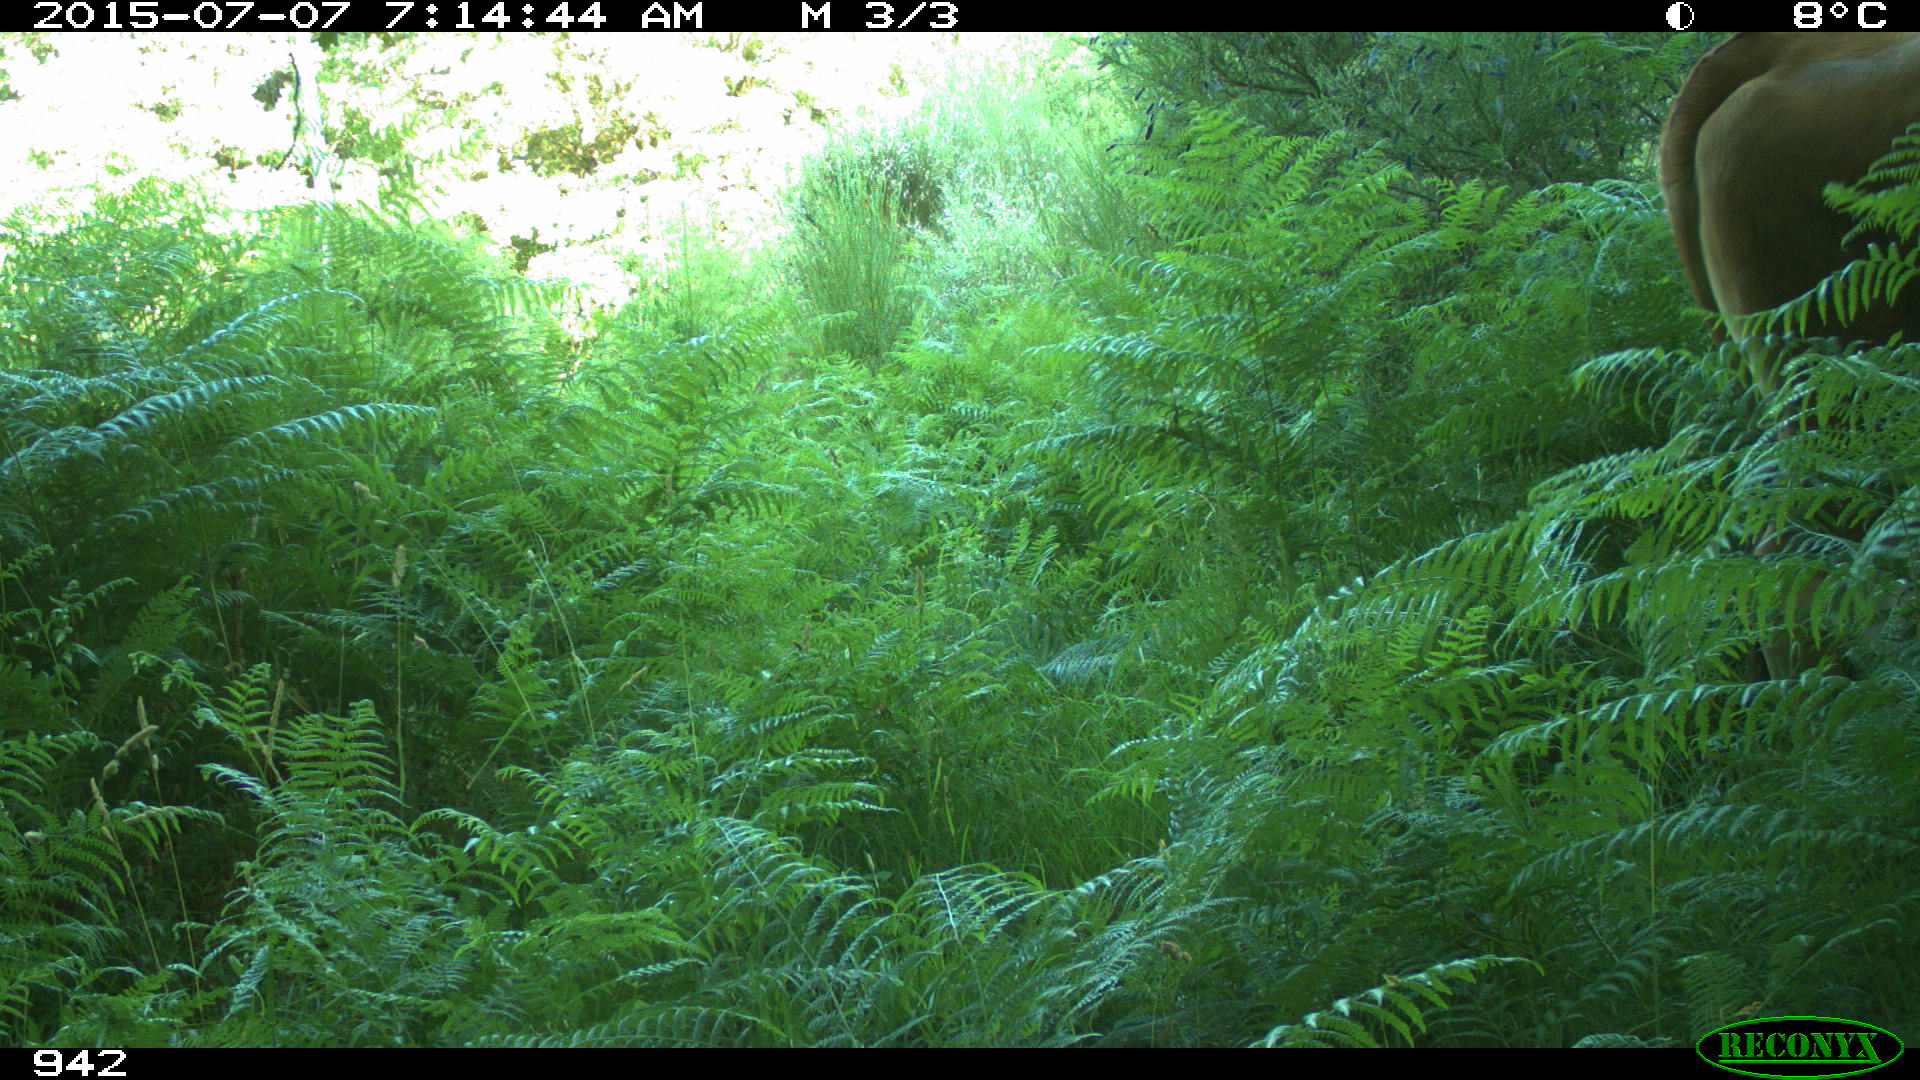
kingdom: Animalia
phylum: Chordata
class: Mammalia
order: Artiodactyla
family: Bovidae
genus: Bos
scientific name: Bos taurus
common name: Domesticated cattle
